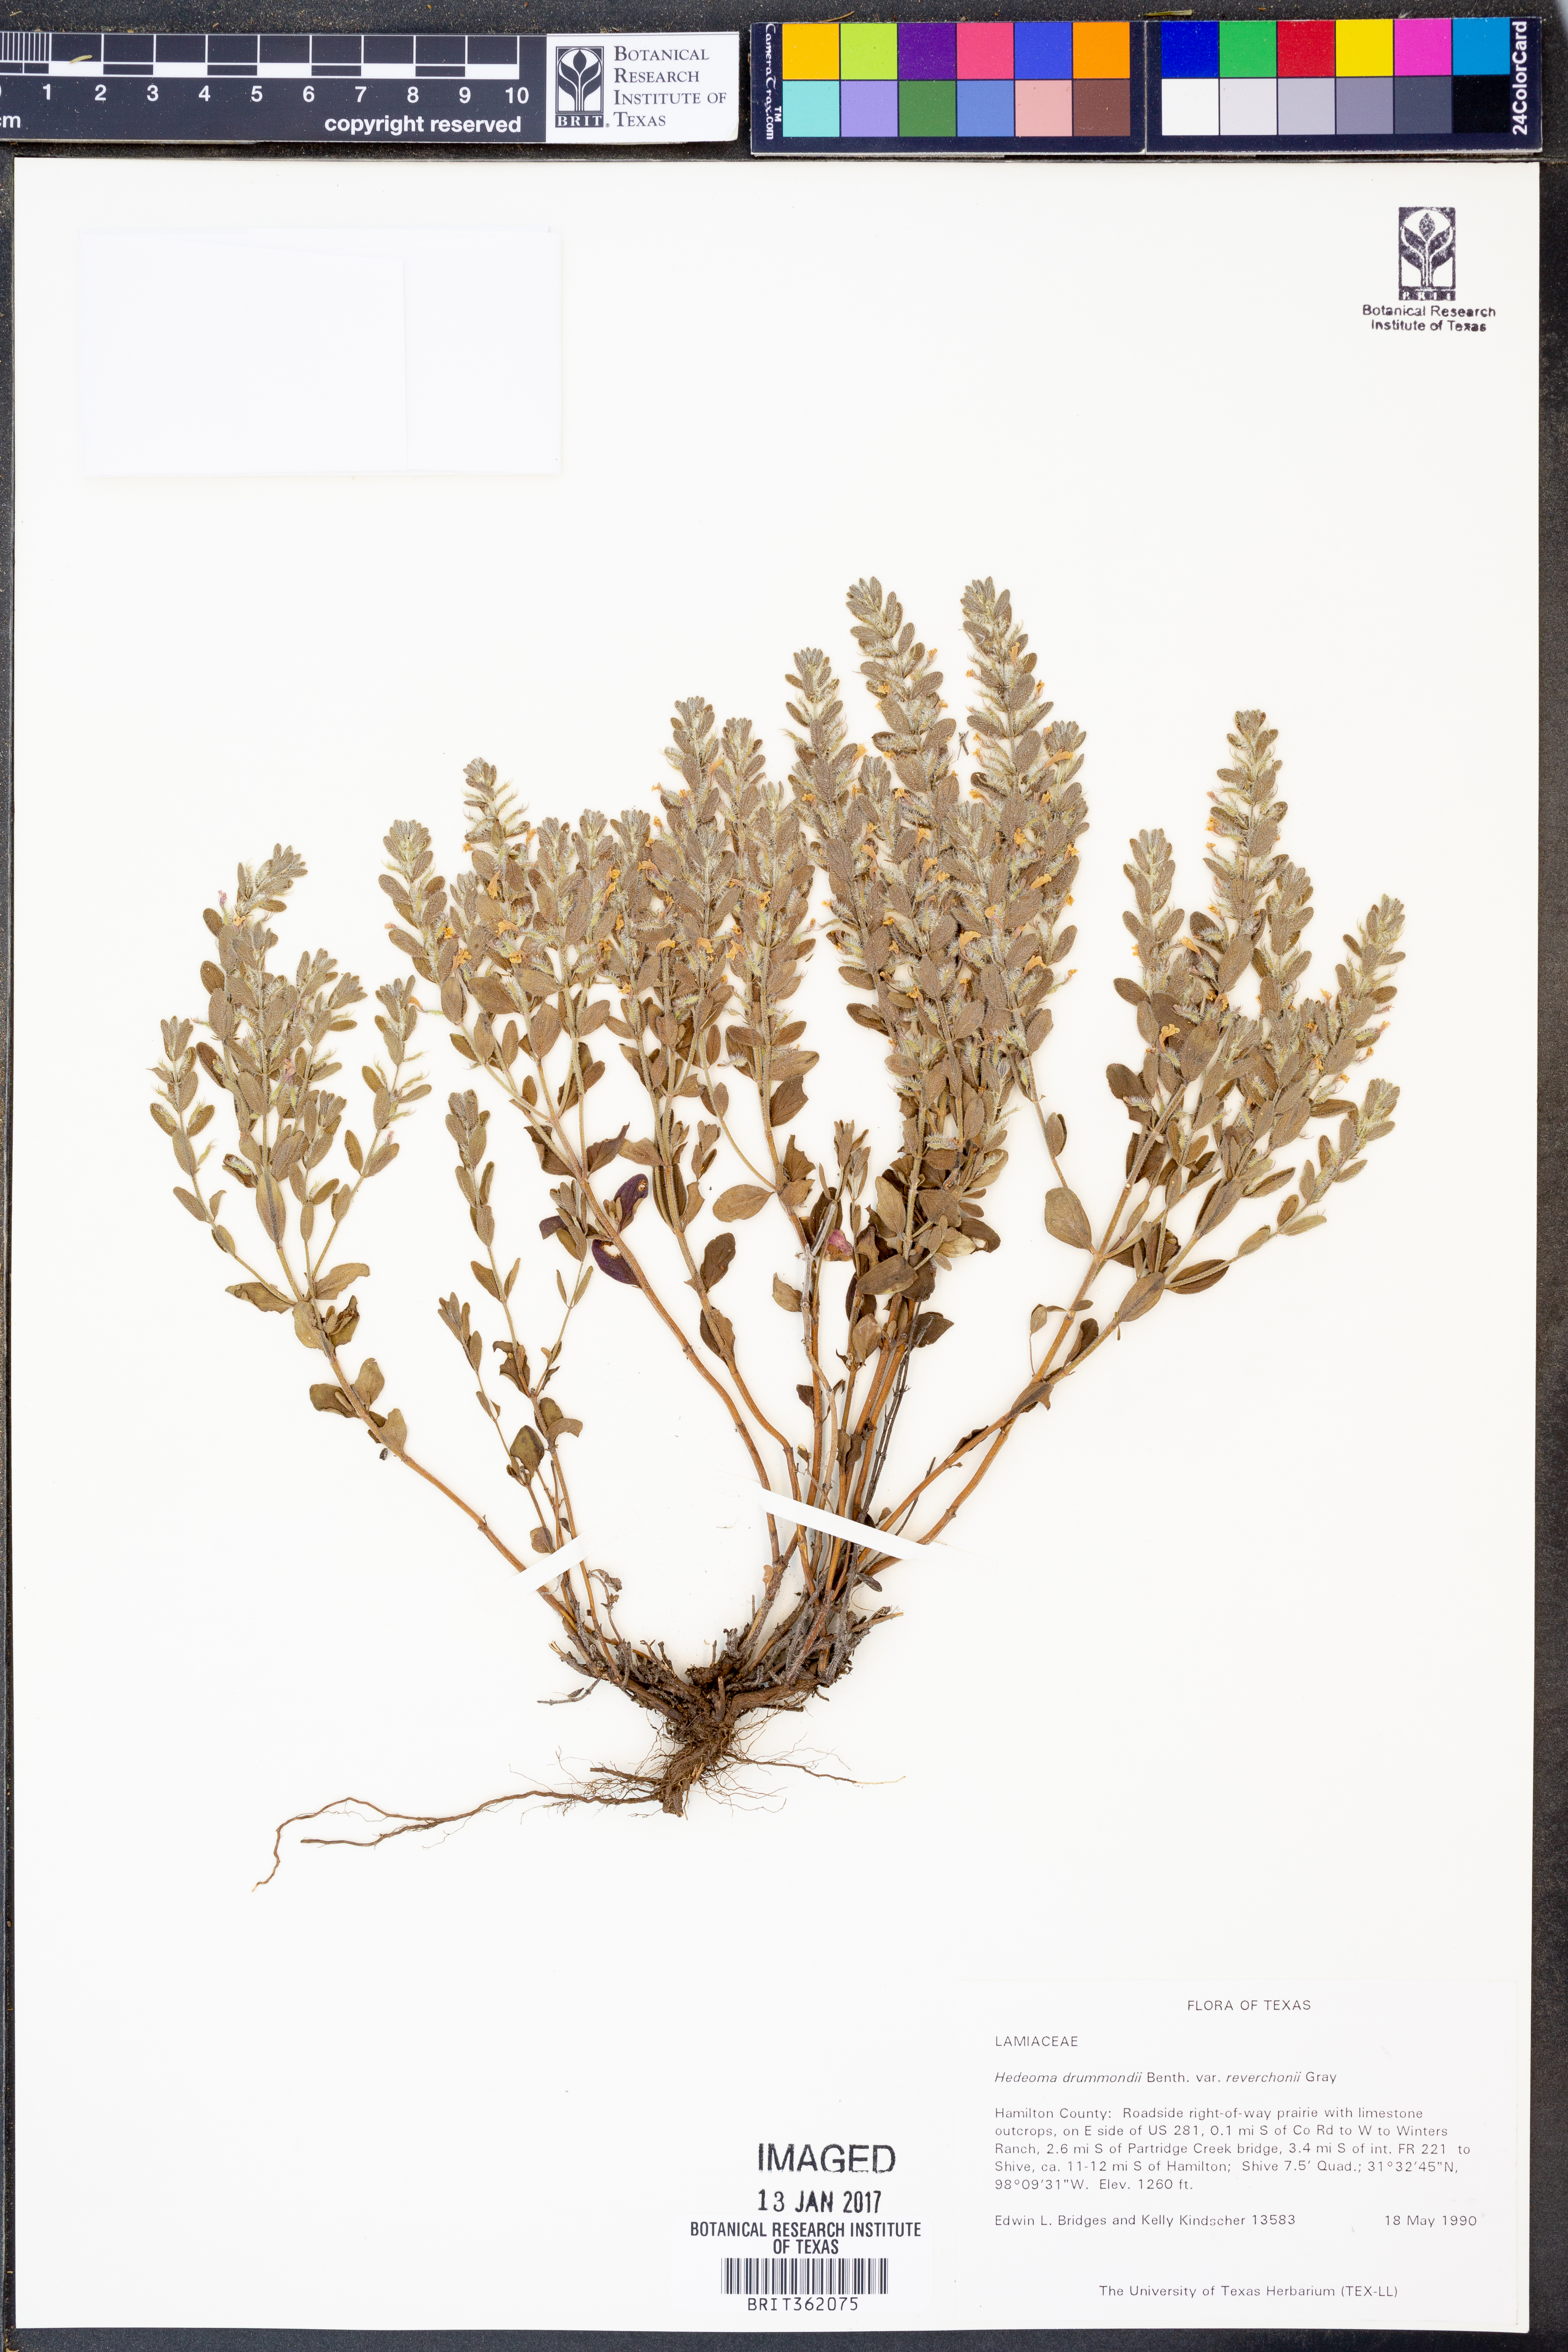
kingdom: Plantae
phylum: Tracheophyta
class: Magnoliopsida
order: Lamiales
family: Lamiaceae
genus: Hedeoma
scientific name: Hedeoma reverchonii
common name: Reverchon's false penny-royal
